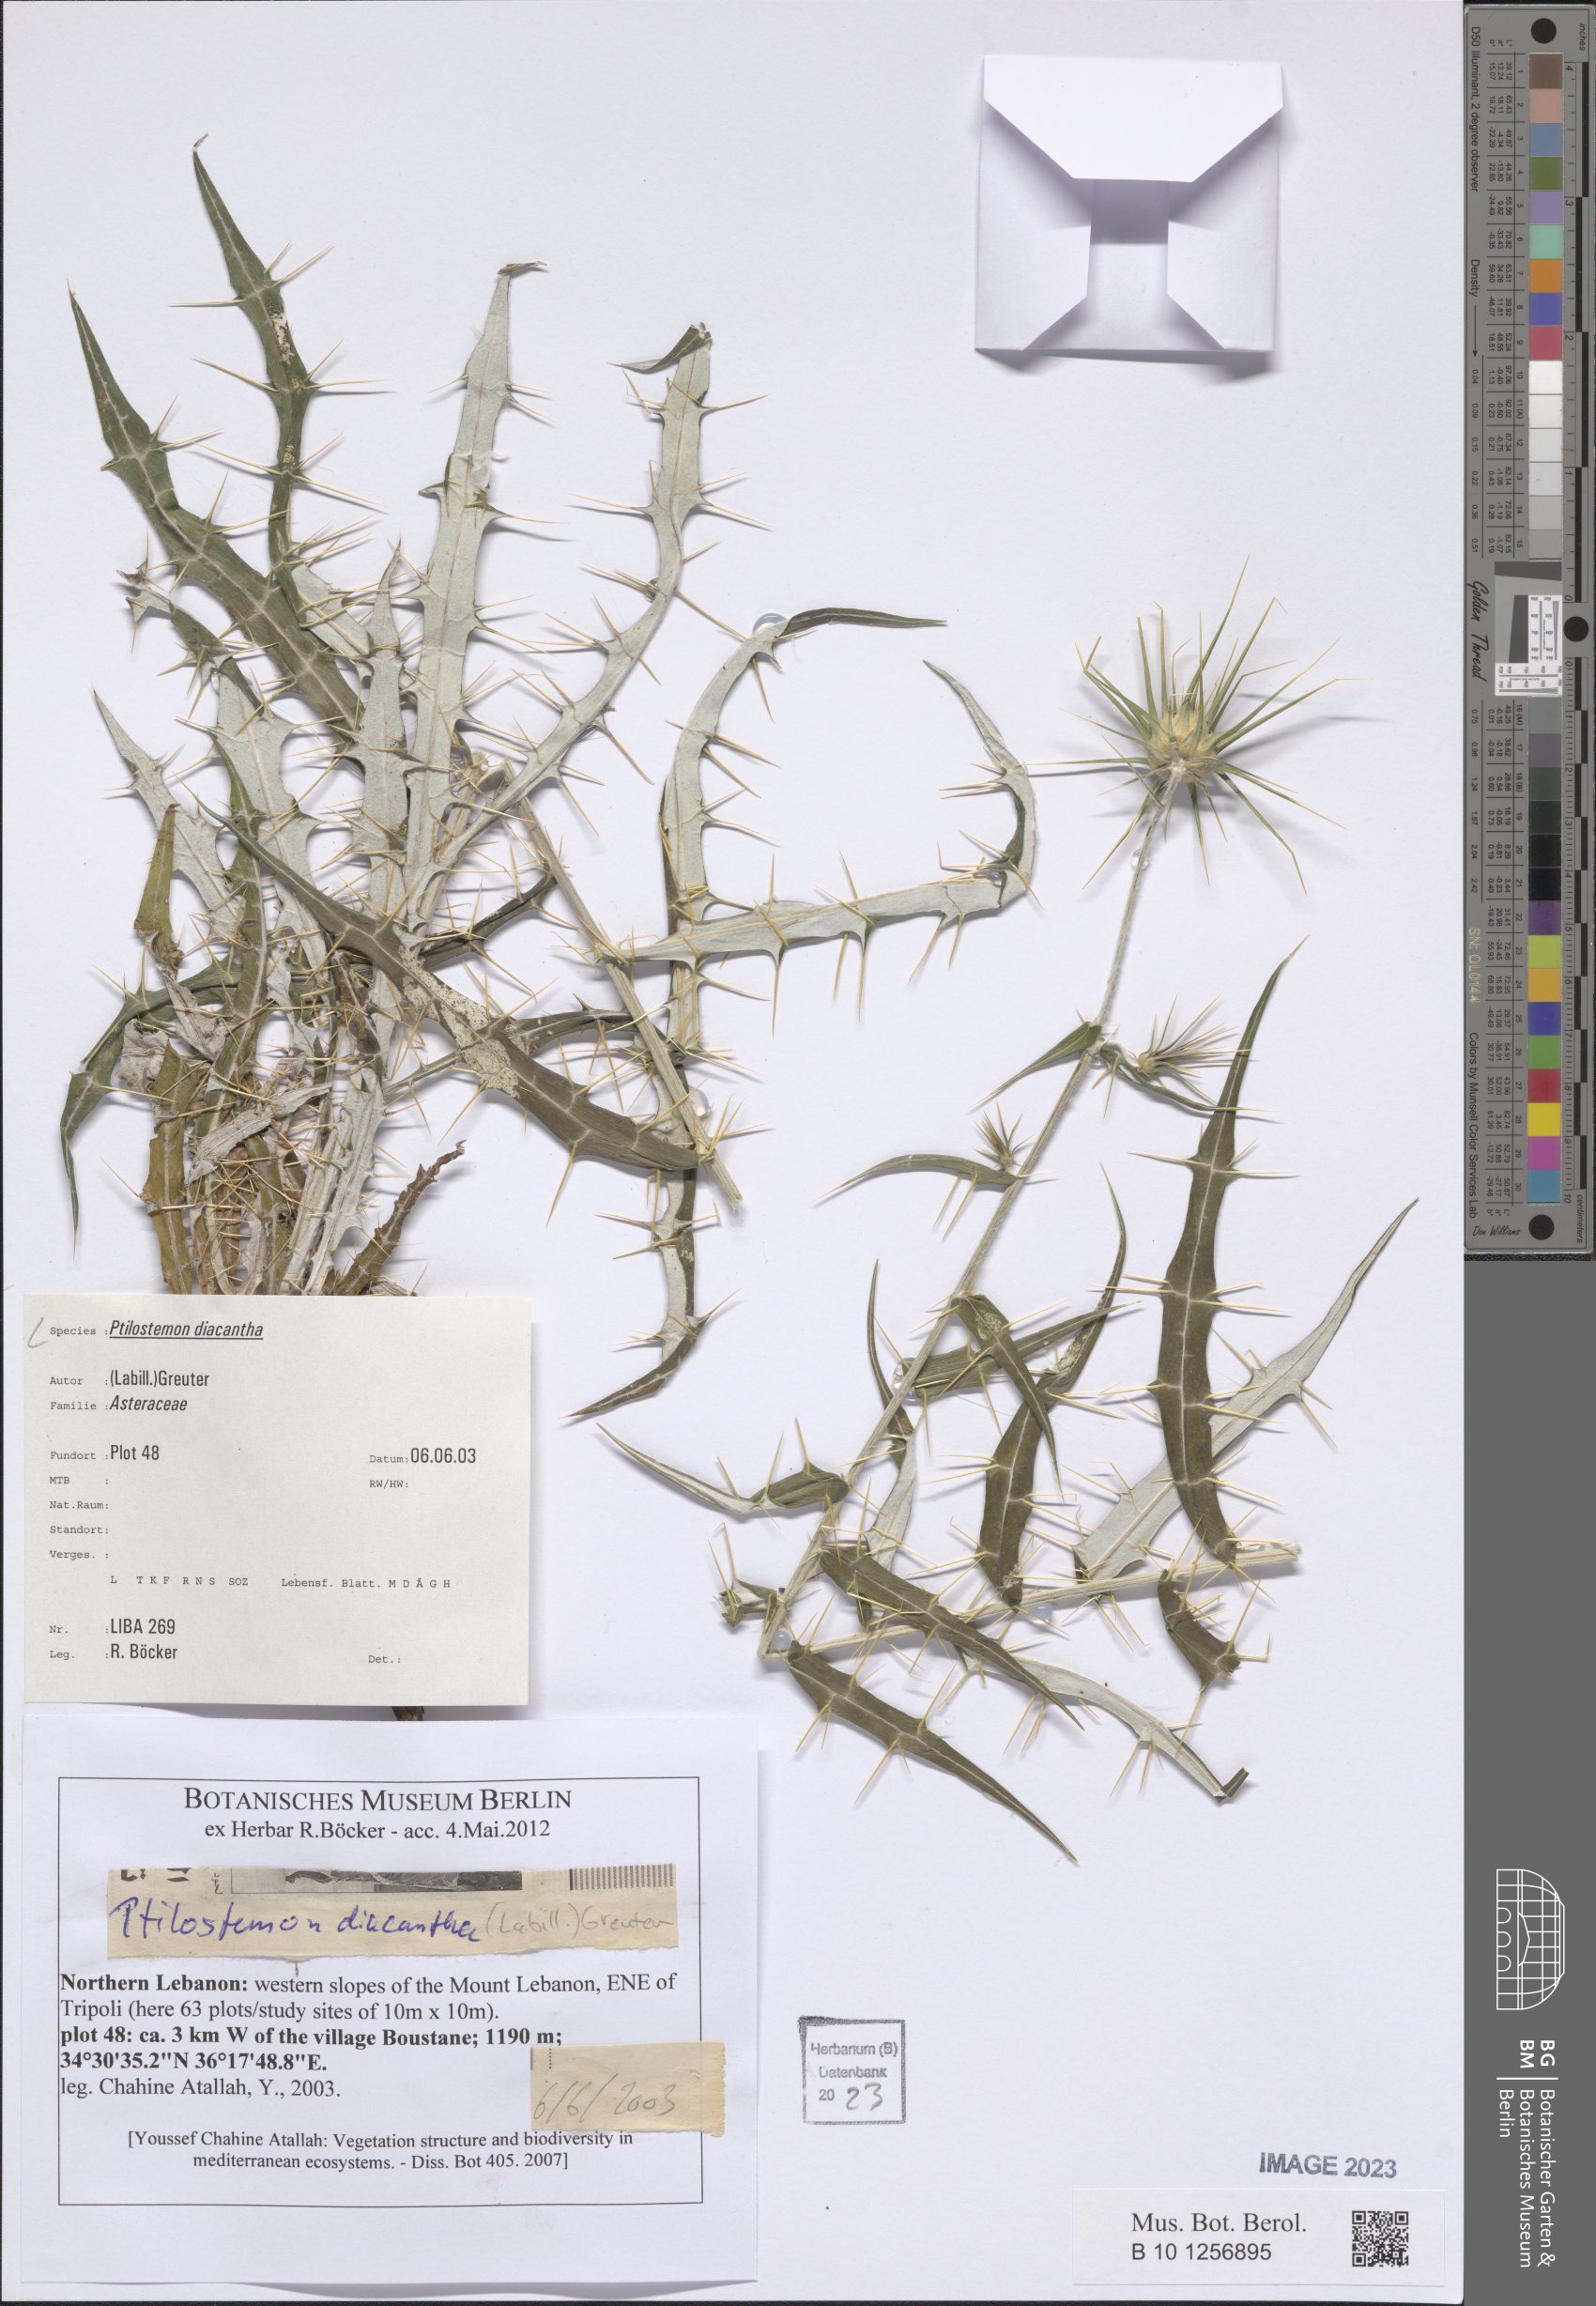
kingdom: Plantae
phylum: Tracheophyta
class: Magnoliopsida
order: Asterales
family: Asteraceae
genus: Ptilostemon
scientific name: Ptilostemon diacanthus
